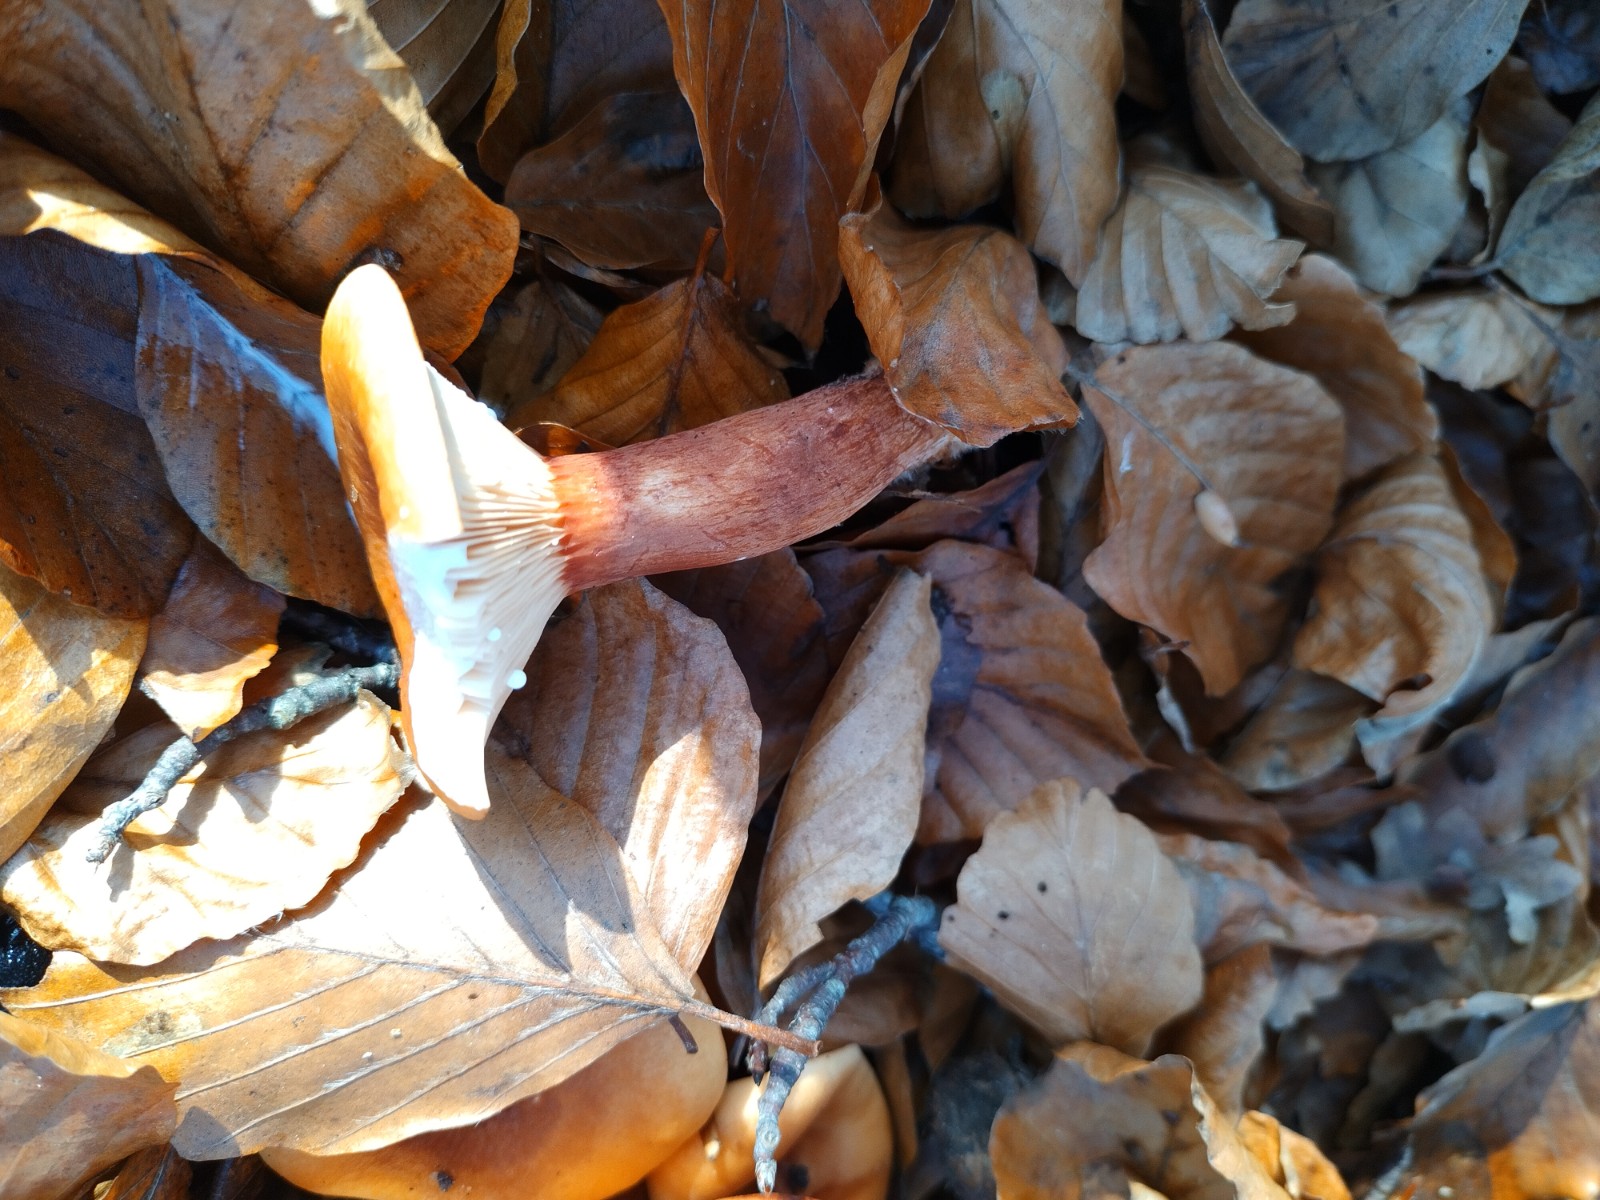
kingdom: Fungi
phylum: Basidiomycota
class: Agaricomycetes
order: Russulales
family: Russulaceae
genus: Lactarius
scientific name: Lactarius subdulcis
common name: sødlig mælkehat
